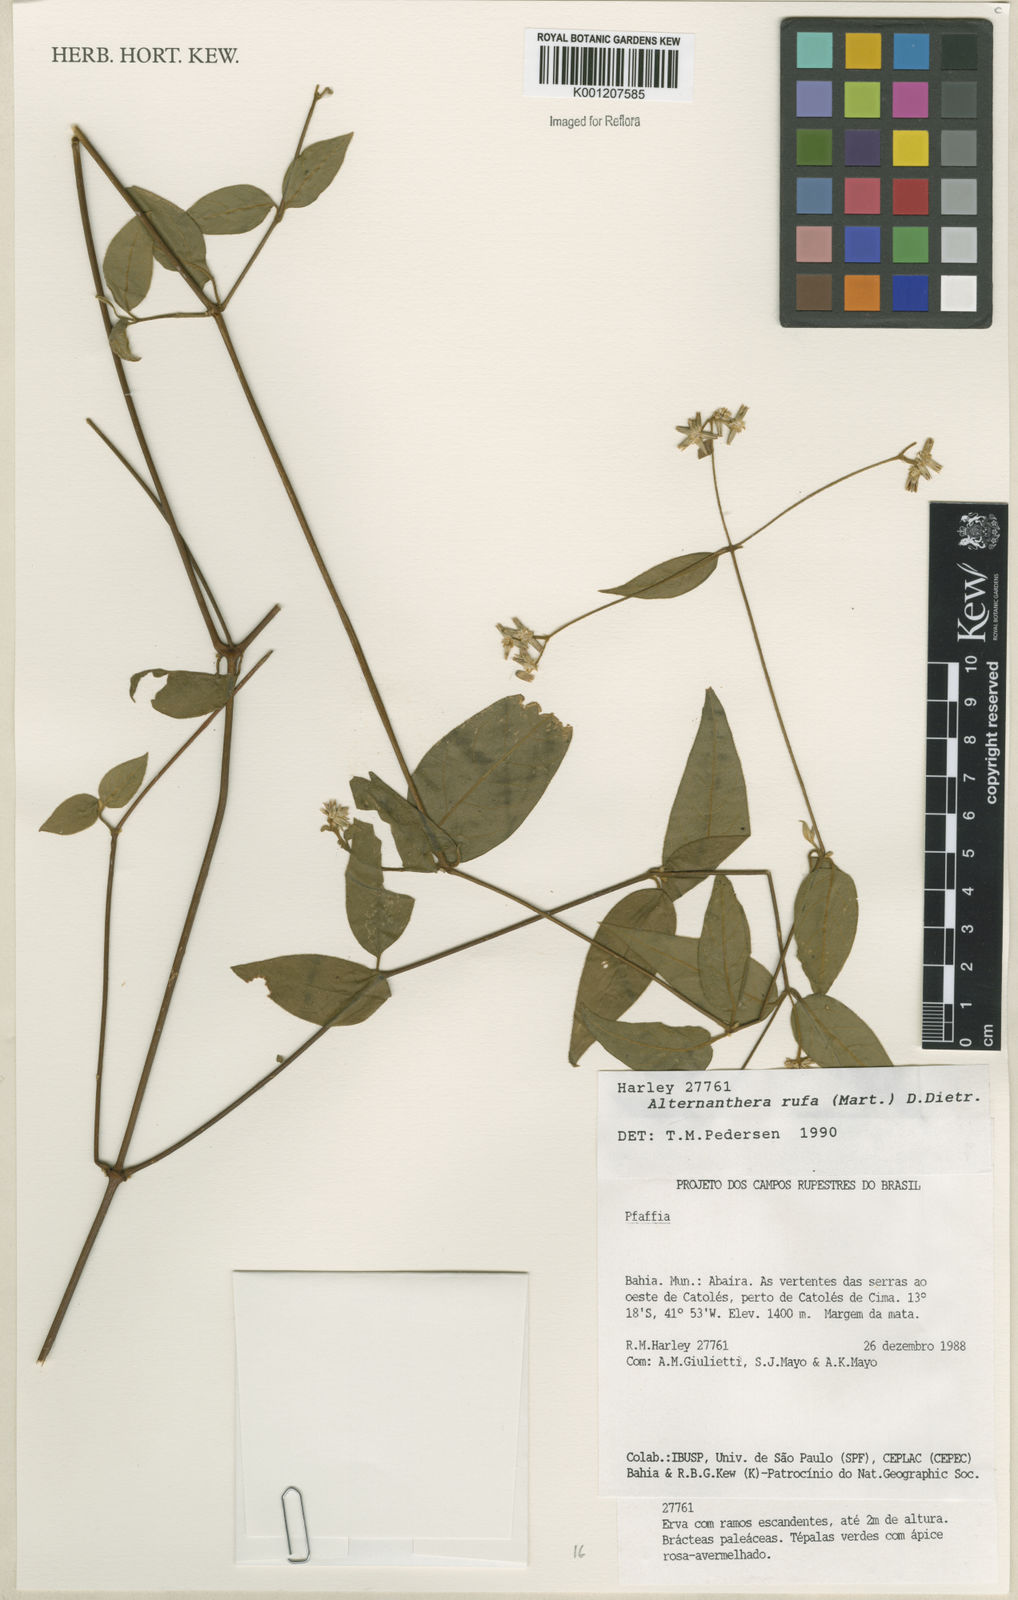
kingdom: Plantae
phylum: Tracheophyta
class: Magnoliopsida
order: Caryophyllales
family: Amaranthaceae
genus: Alternanthera
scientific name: Alternanthera rufa
